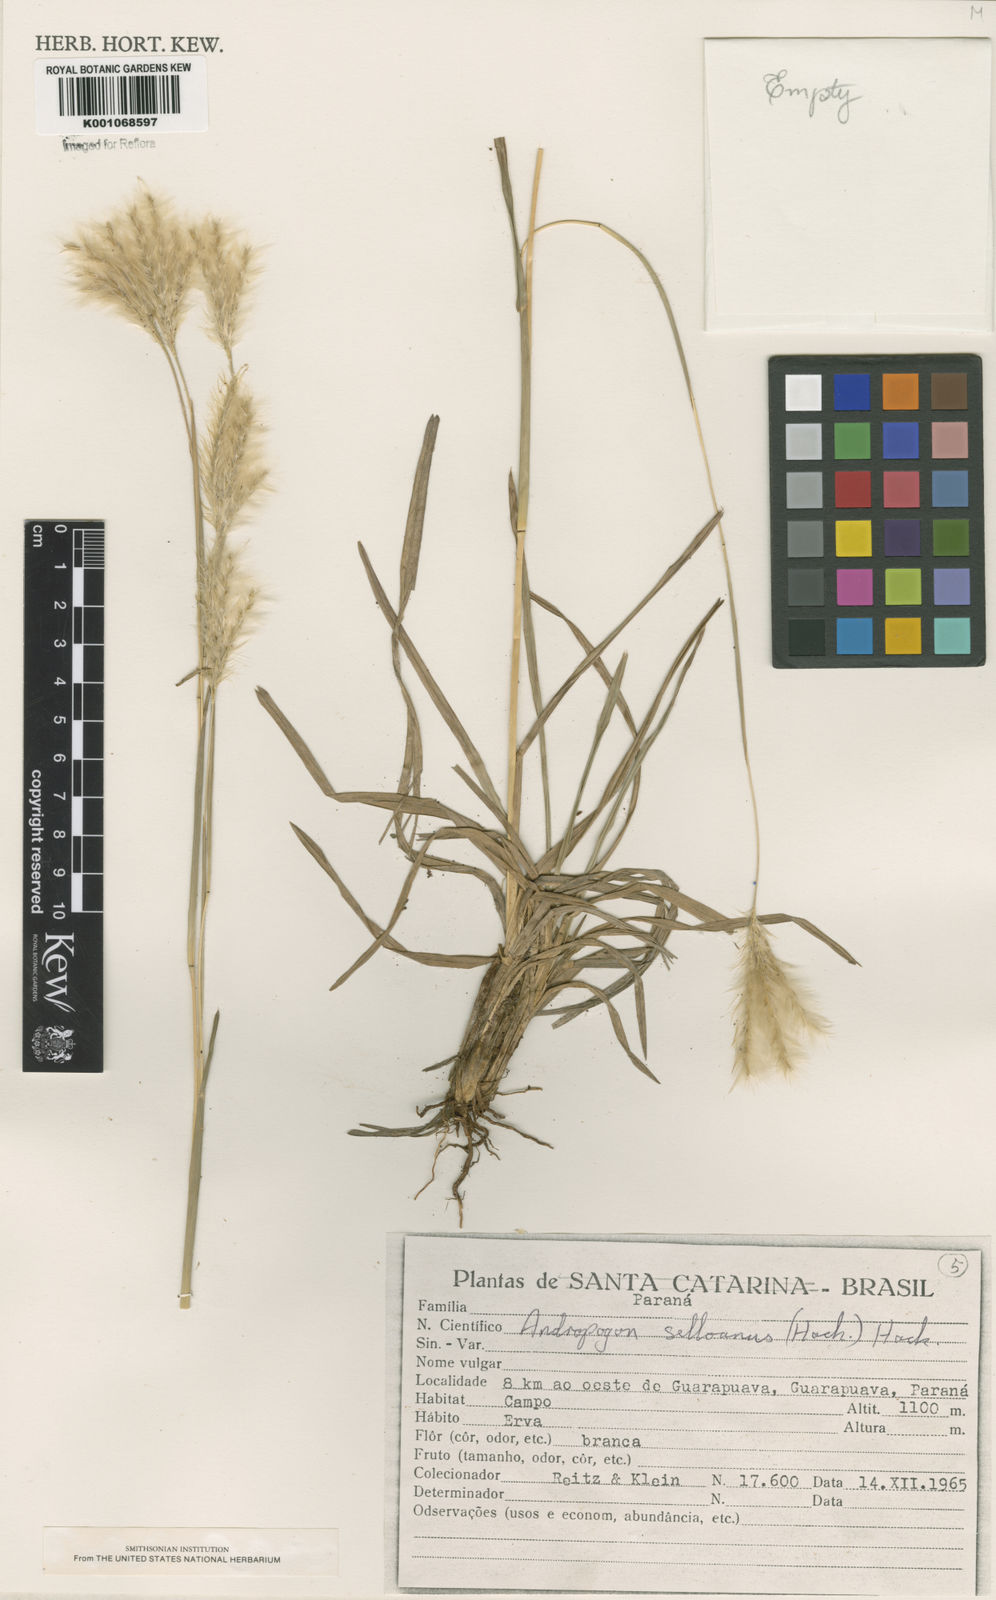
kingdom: Plantae
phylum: Tracheophyta
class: Liliopsida
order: Poales
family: Poaceae
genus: Andropogon
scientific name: Andropogon selloanus
